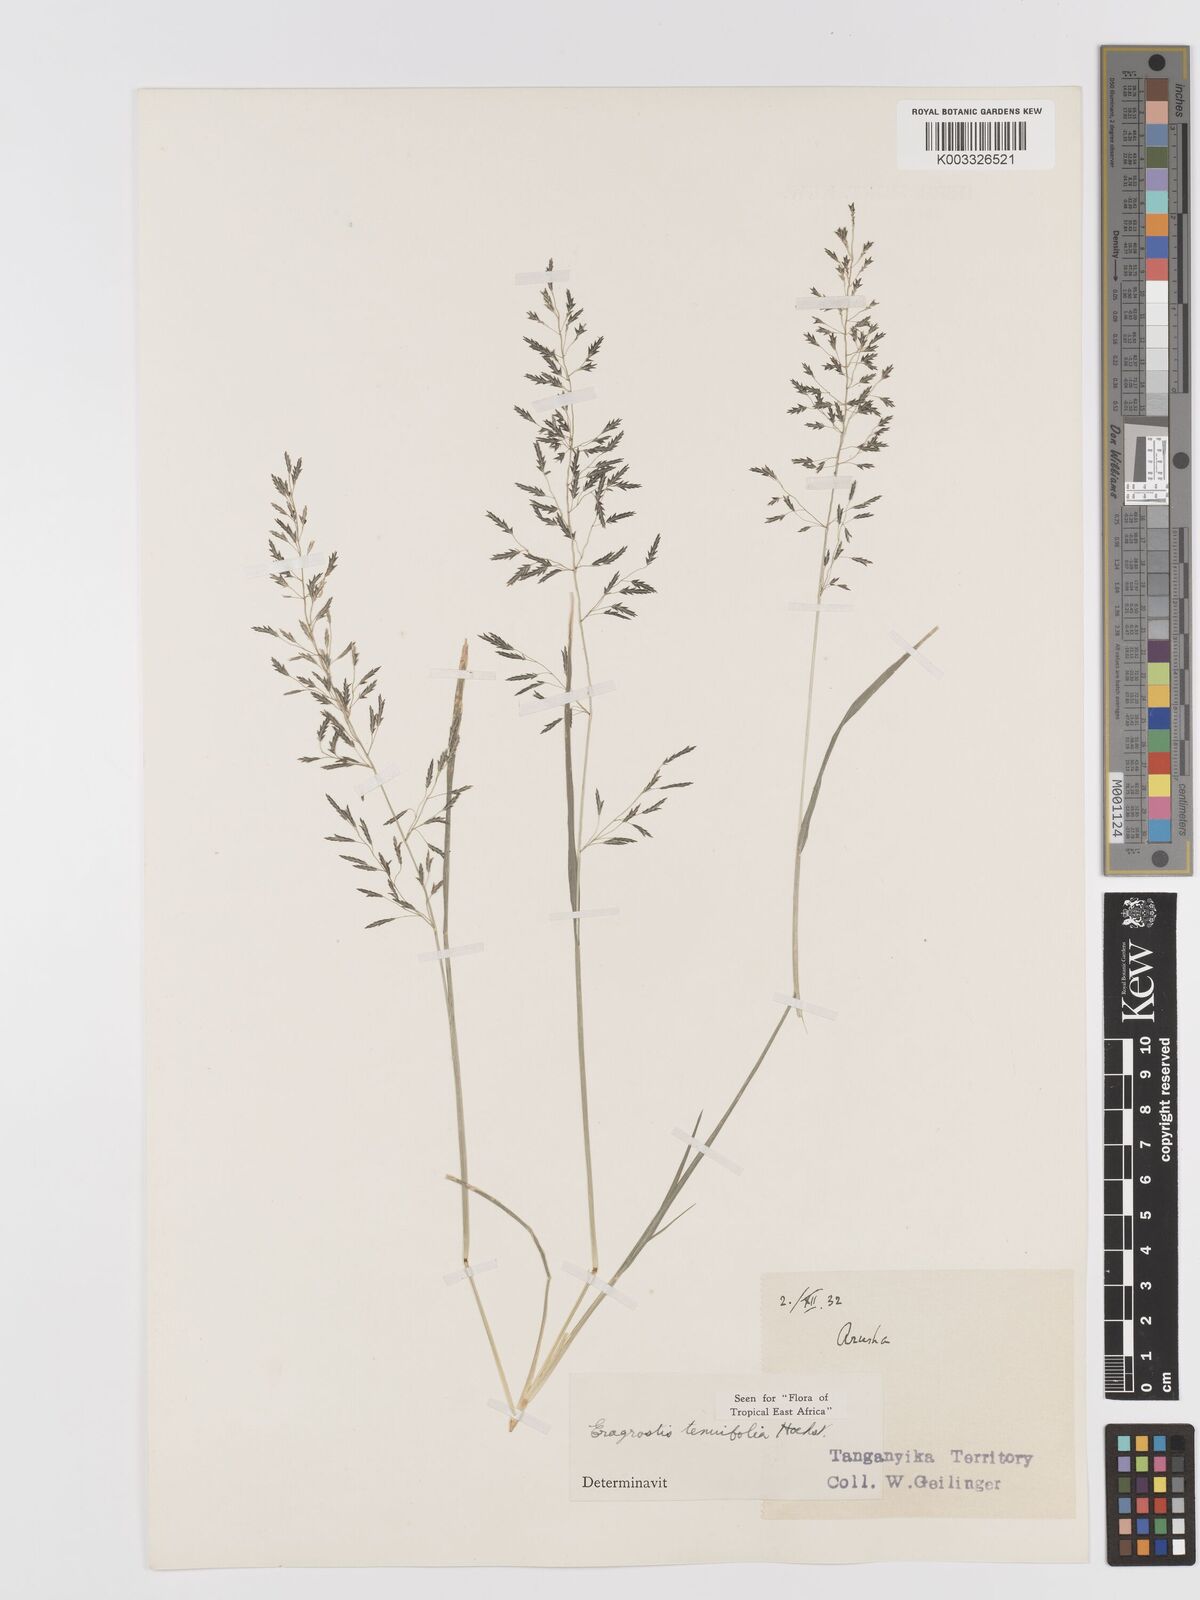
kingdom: Plantae
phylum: Tracheophyta
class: Liliopsida
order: Poales
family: Poaceae
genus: Eragrostis
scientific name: Eragrostis tenuifolia
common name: Elastic grass
